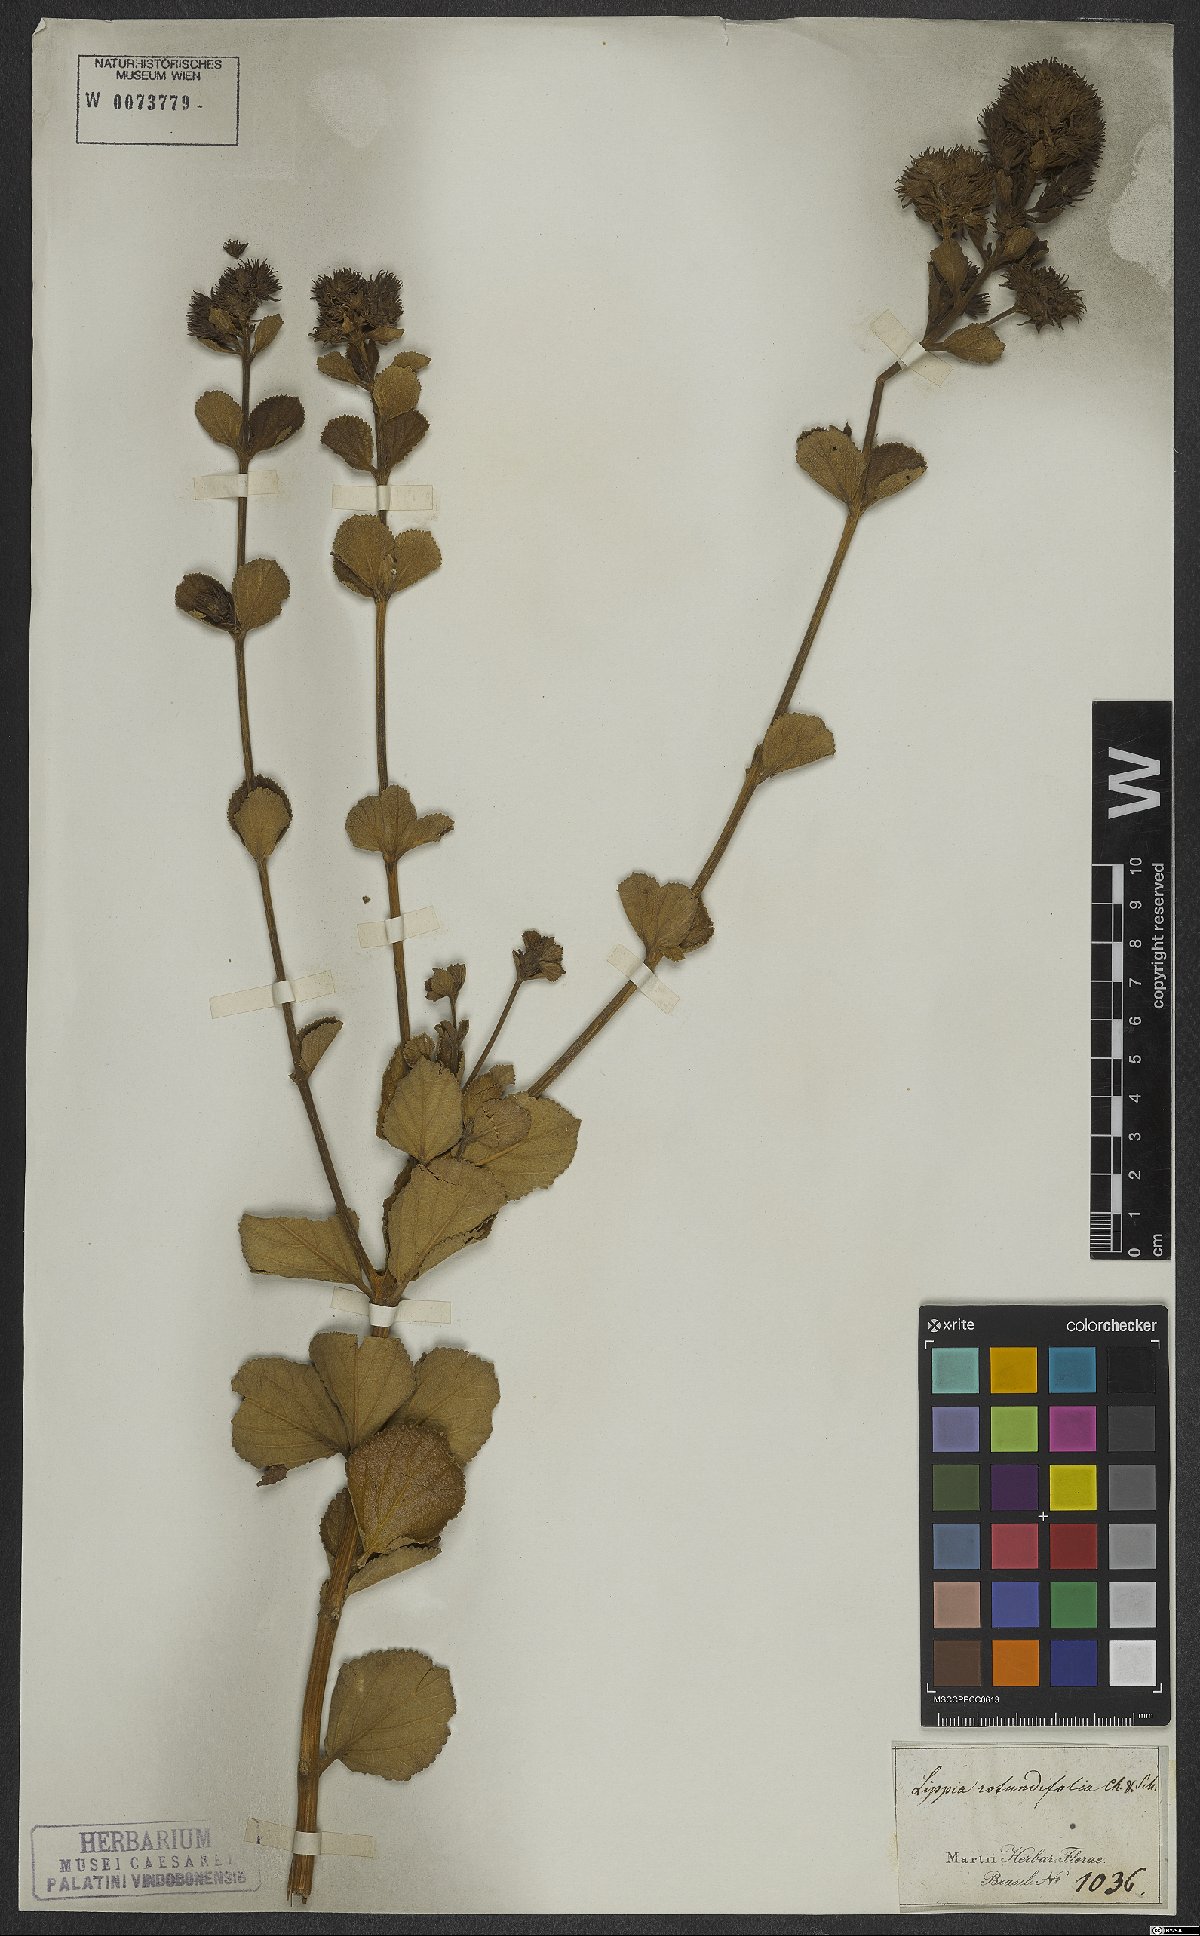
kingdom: Plantae
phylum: Tracheophyta
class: Magnoliopsida
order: Lamiales
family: Verbenaceae
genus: Lippia
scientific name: Lippia rotundifolia
